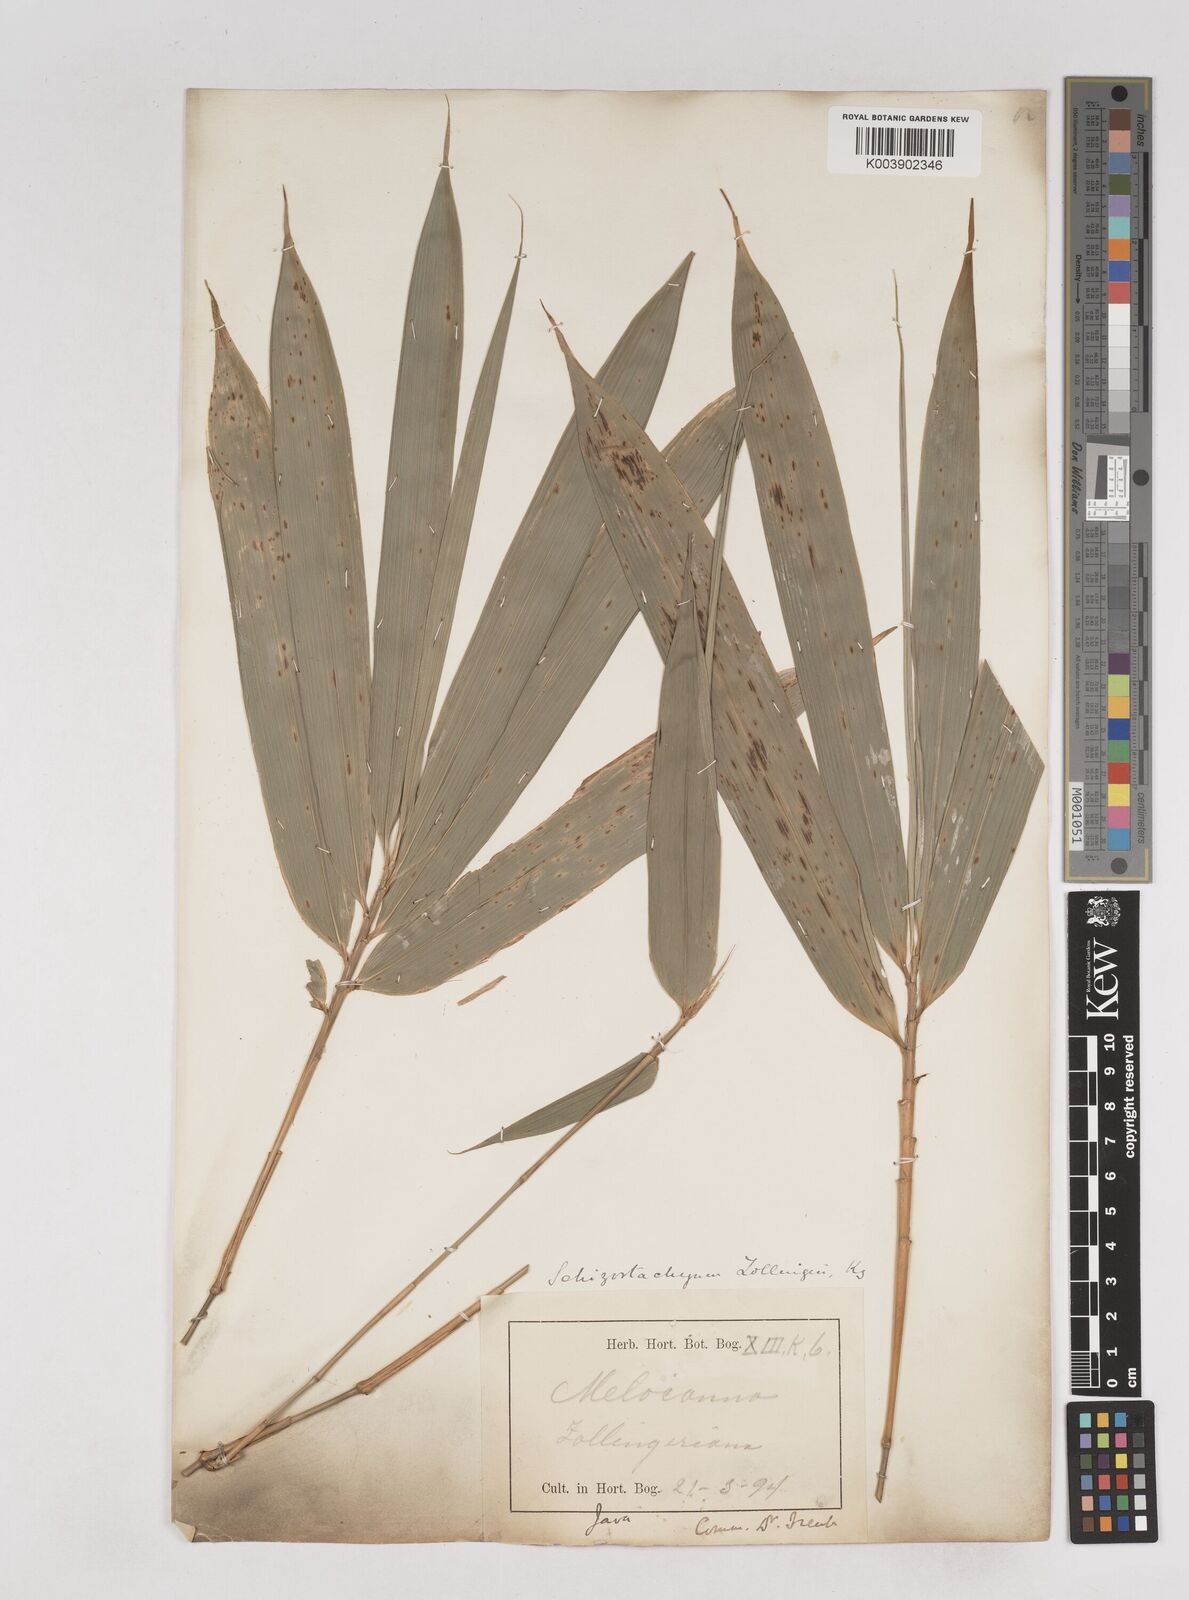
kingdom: Plantae
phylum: Tracheophyta
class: Liliopsida
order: Poales
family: Poaceae
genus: Schizostachyum
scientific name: Schizostachyum zollingeri
